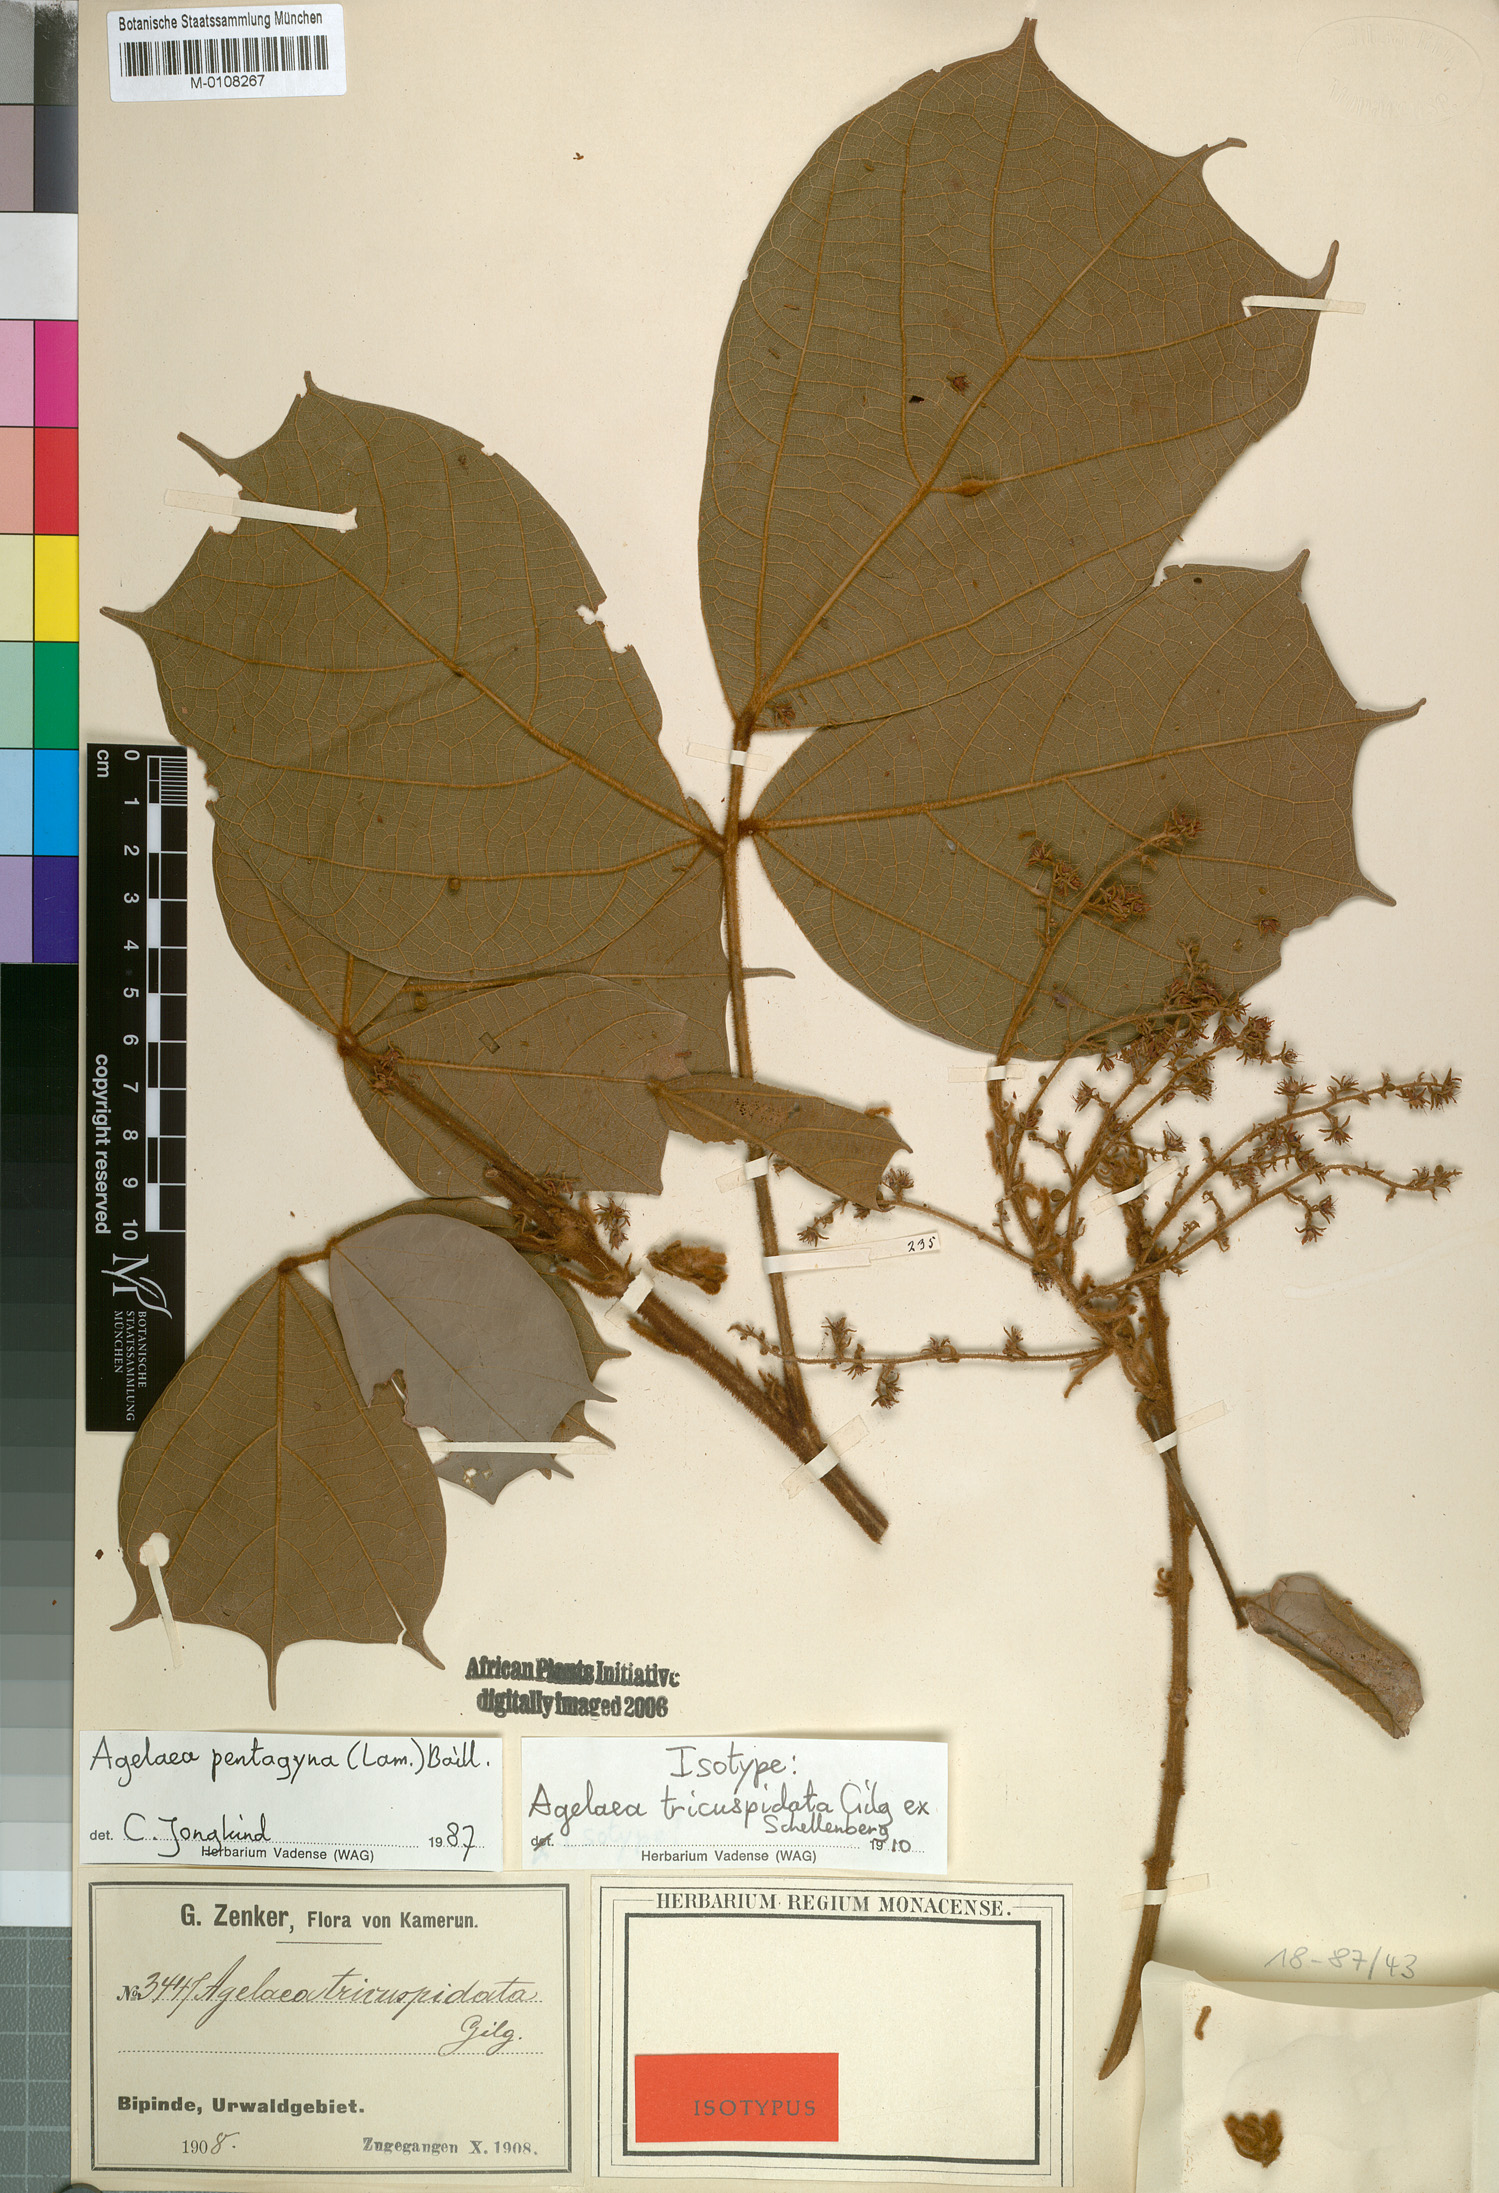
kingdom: Plantae
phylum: Tracheophyta
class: Magnoliopsida
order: Oxalidales
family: Connaraceae
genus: Agelaea
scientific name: Agelaea pentagyna
